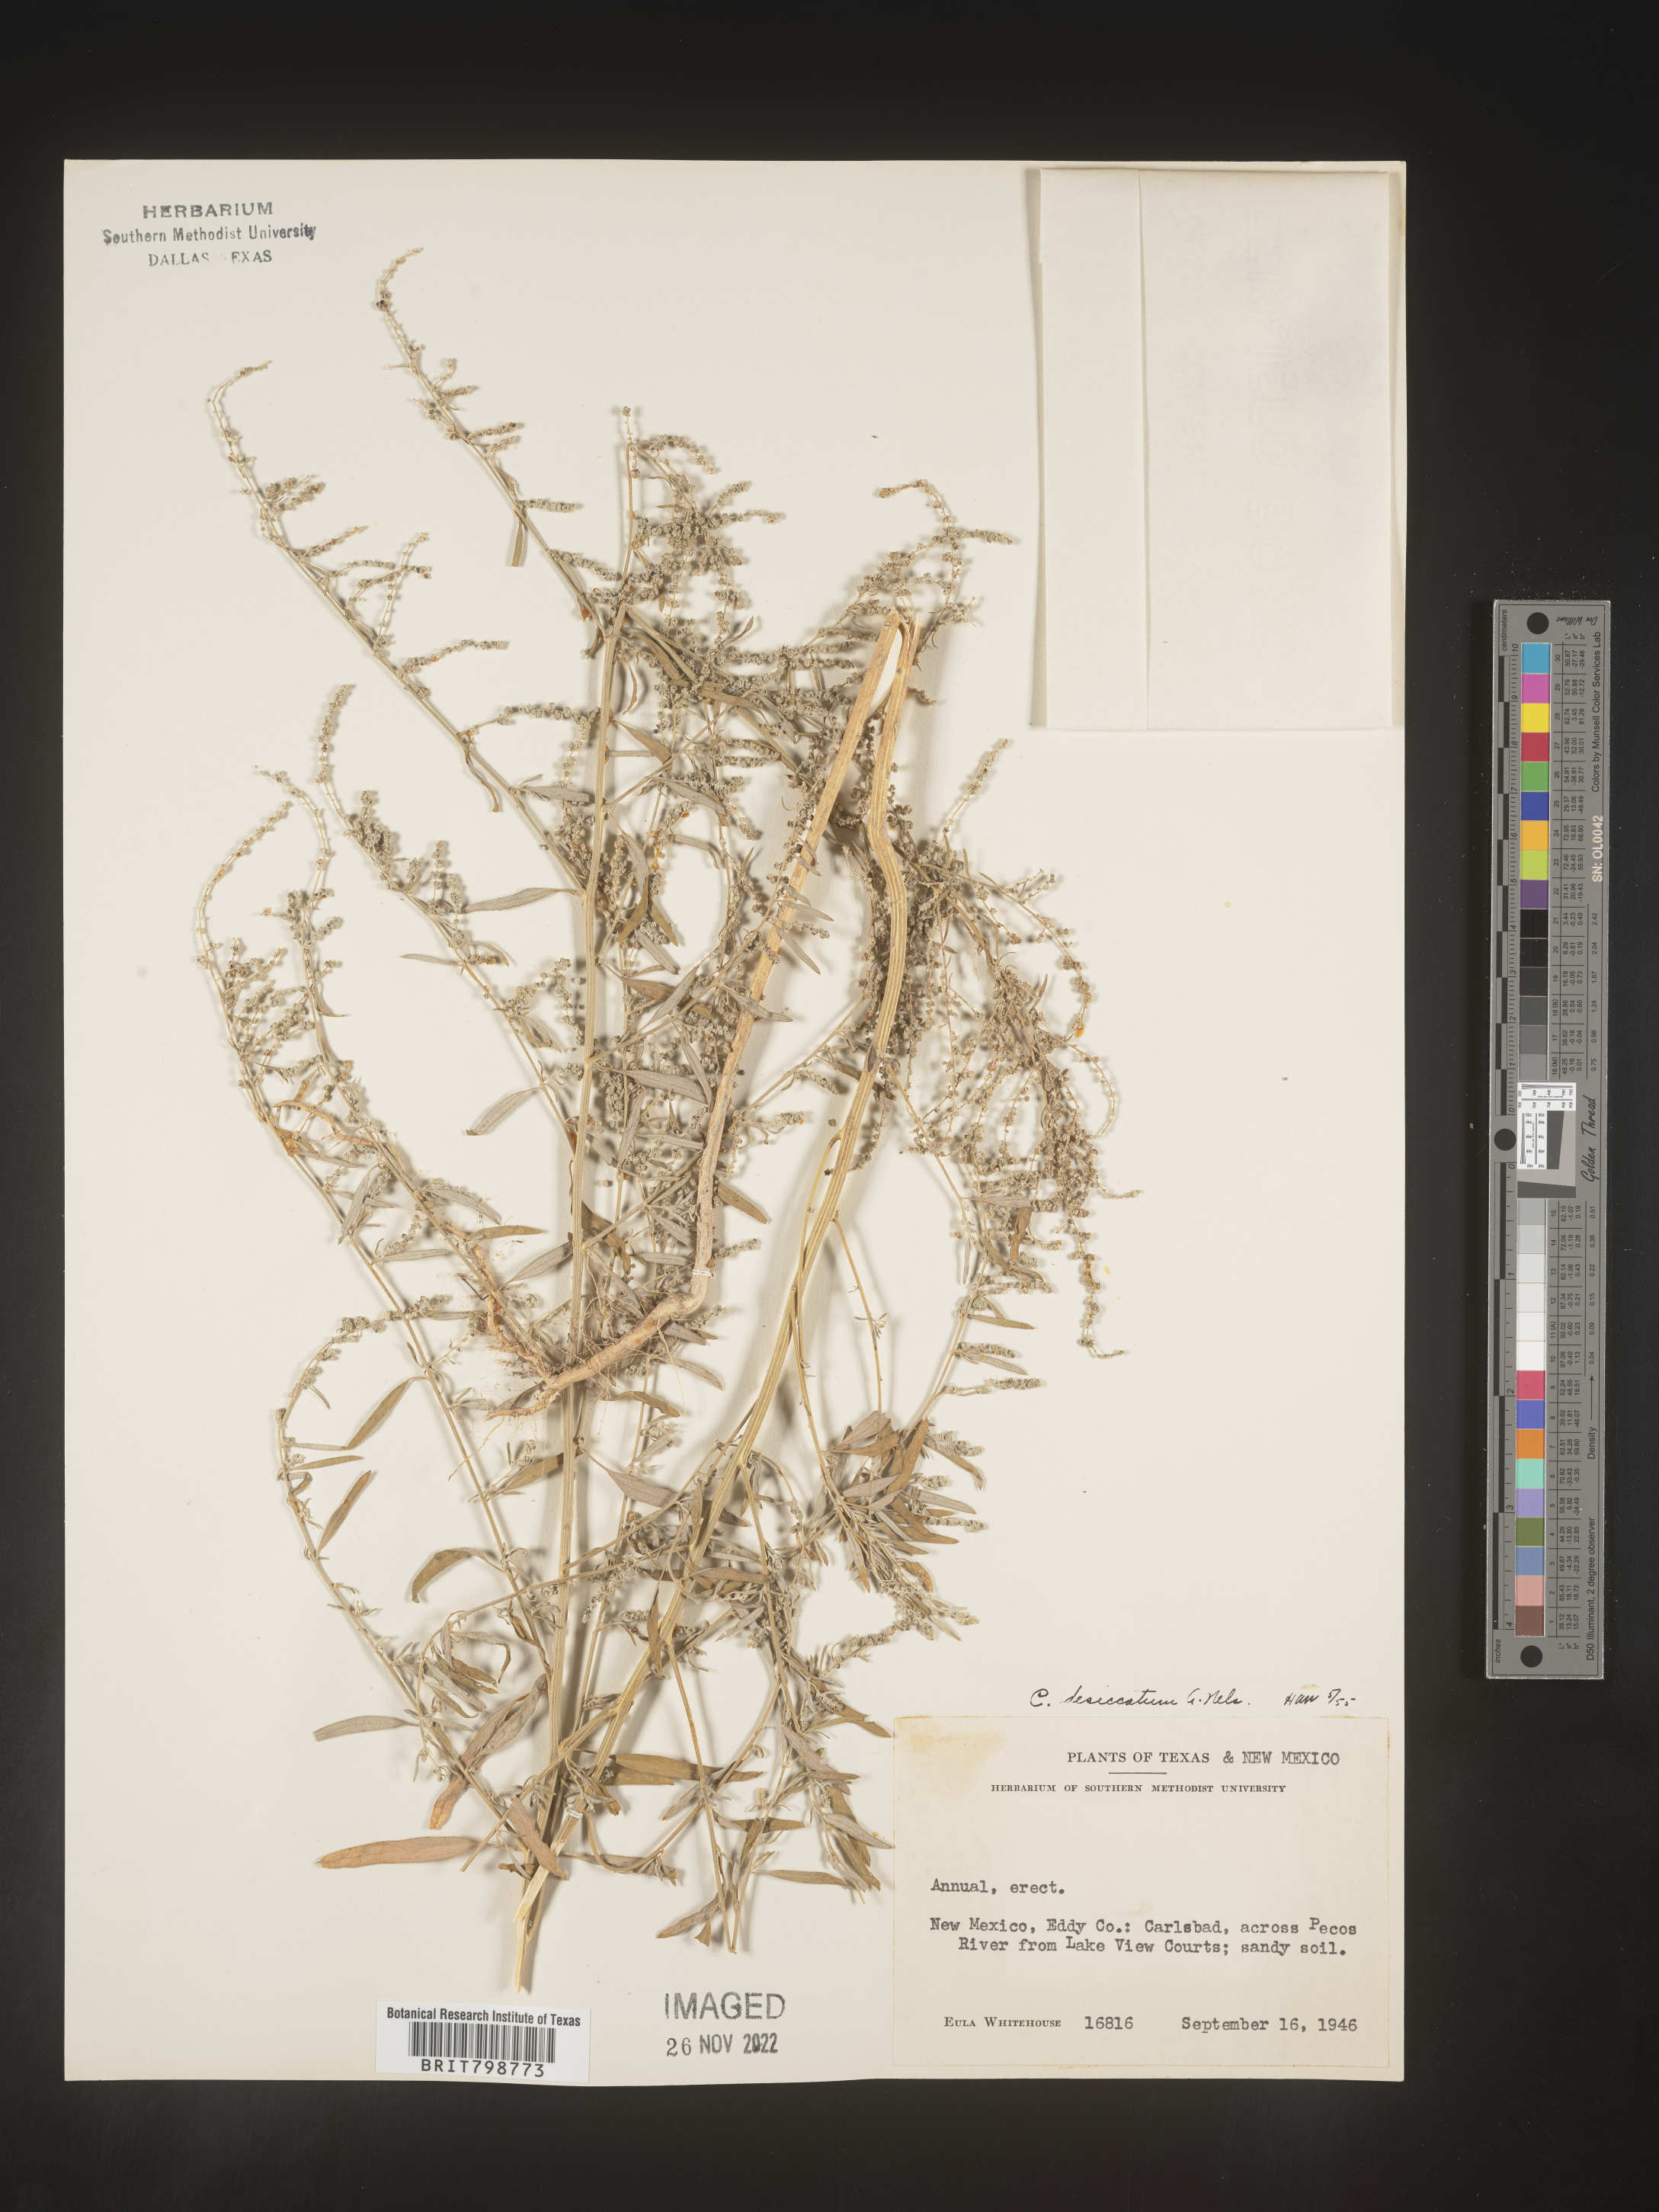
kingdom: Plantae
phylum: Tracheophyta
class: Magnoliopsida
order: Caryophyllales
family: Amaranthaceae
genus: Chenopodium
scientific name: Chenopodium desiccatum
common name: Slimleaf goosefoot
